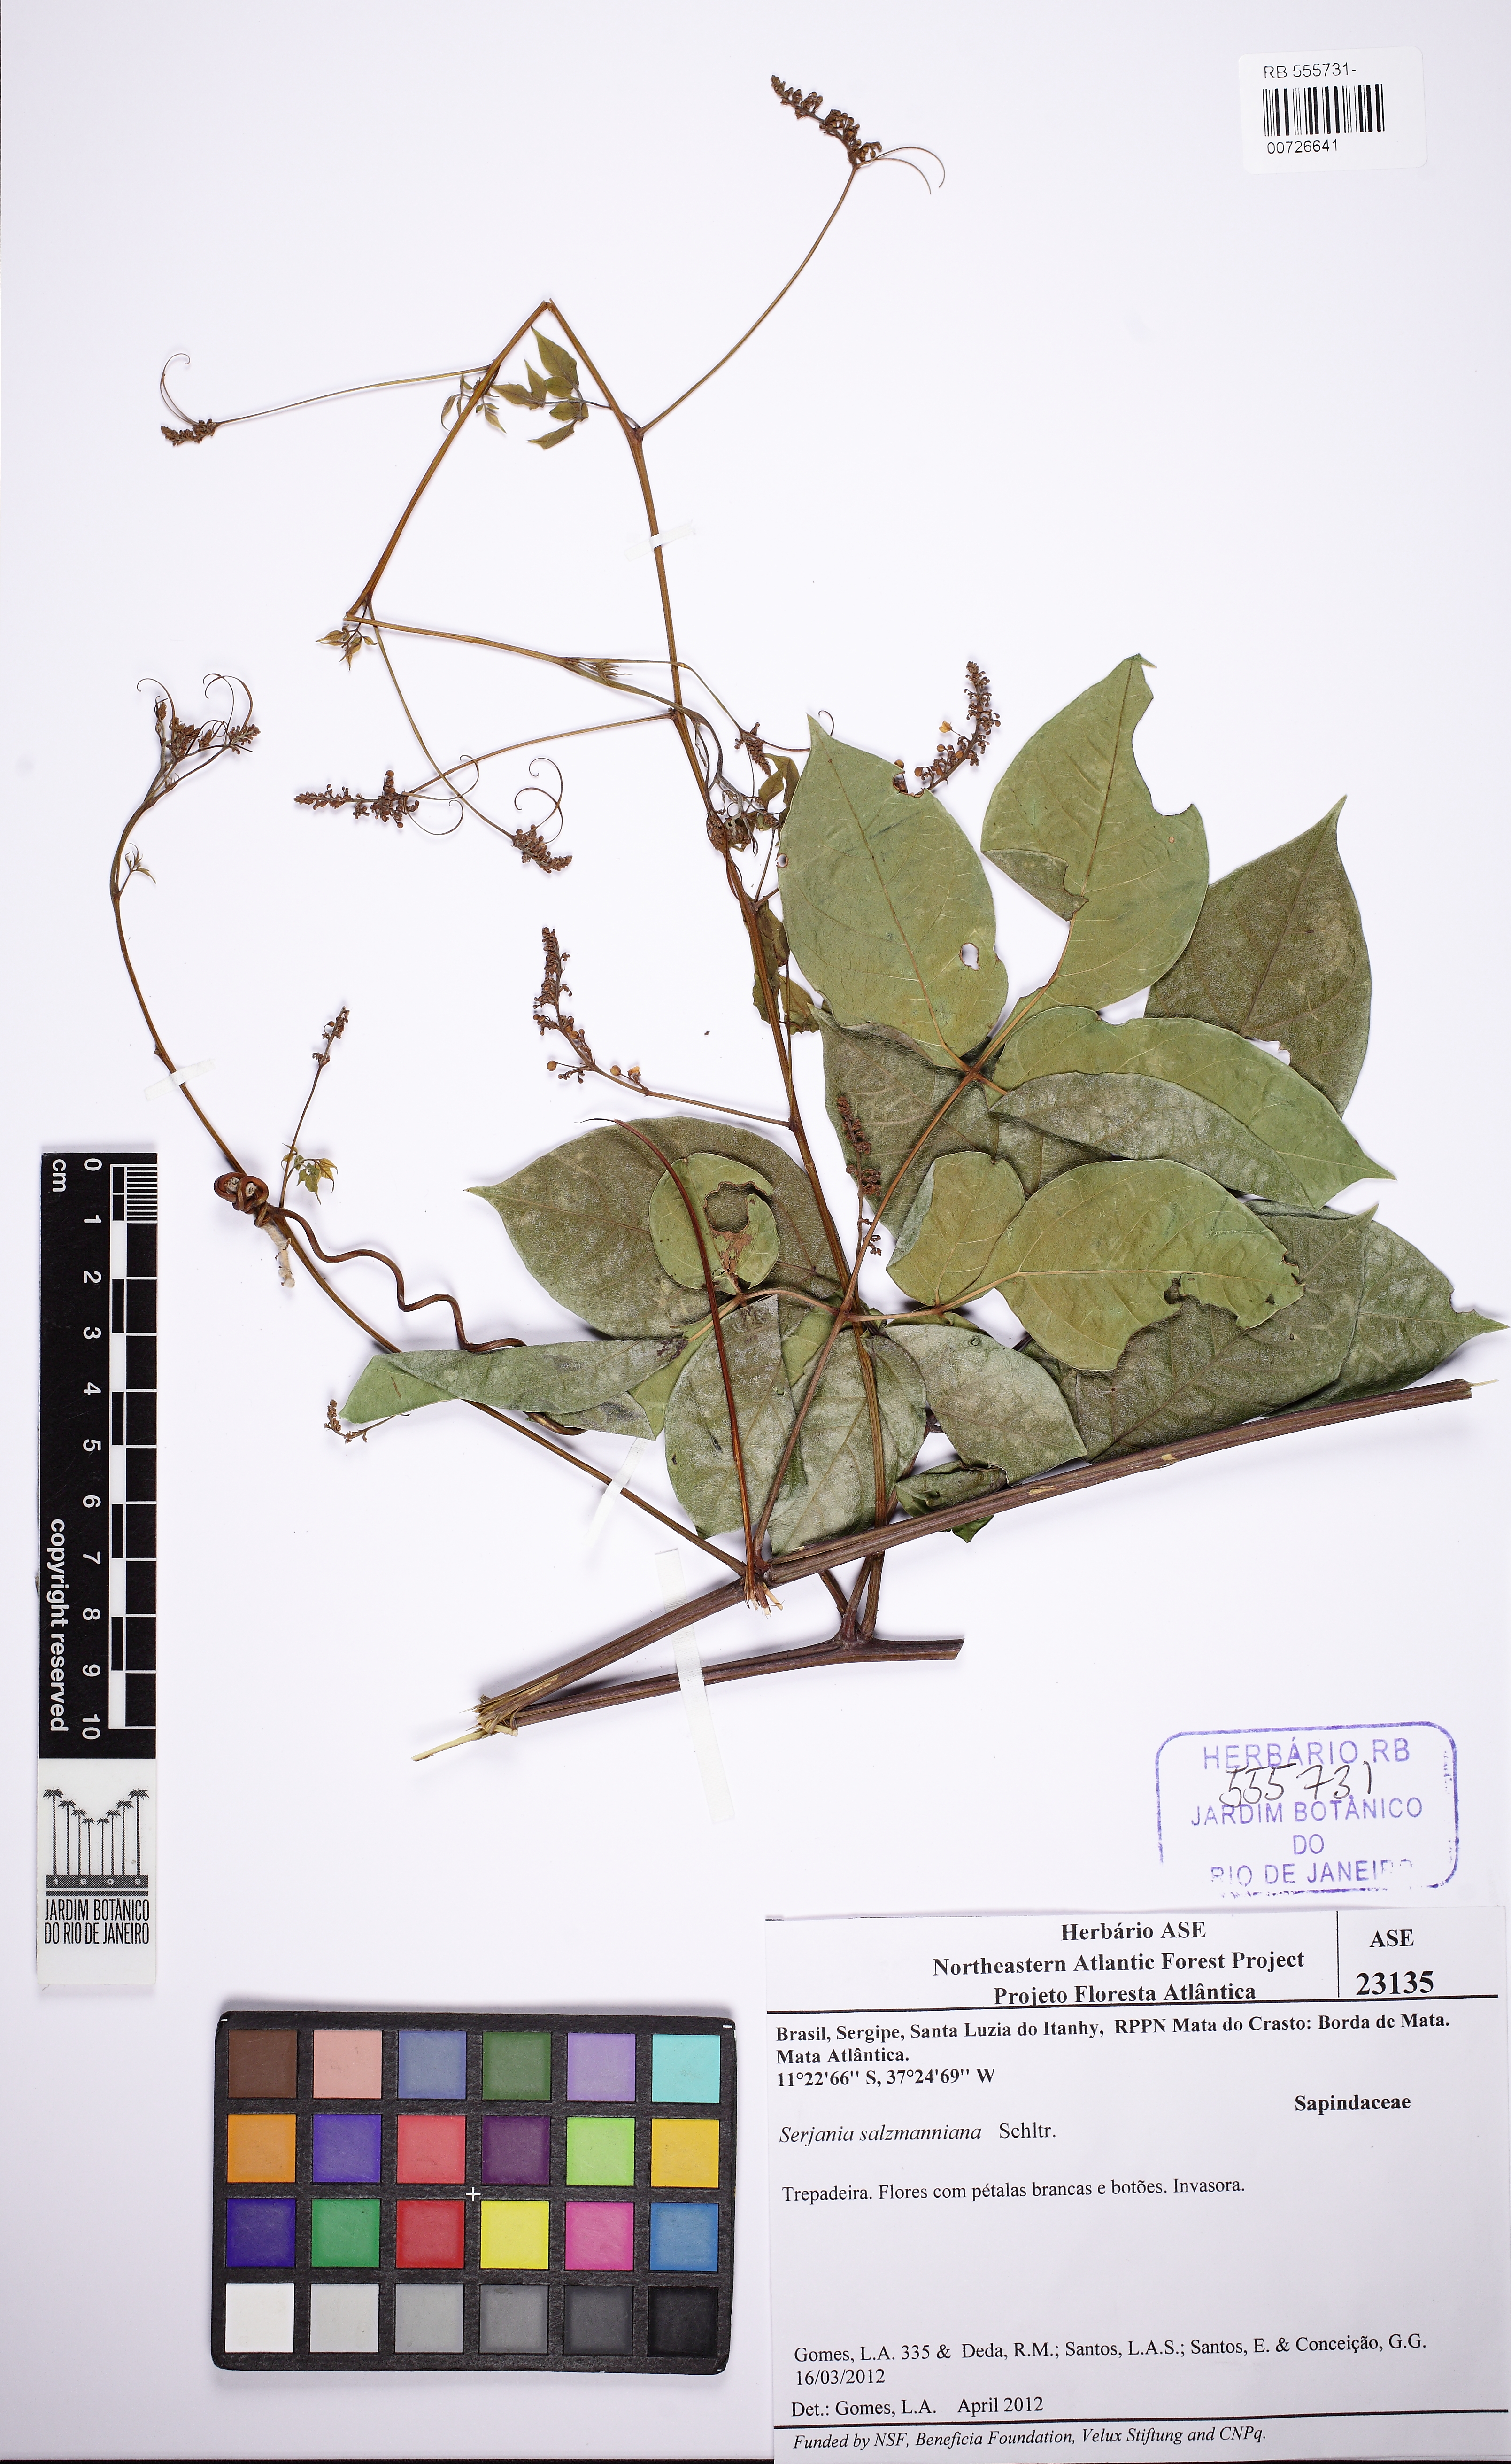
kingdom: Plantae
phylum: Tracheophyta
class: Magnoliopsida
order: Sapindales
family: Sapindaceae
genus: Serjania
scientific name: Serjania salzmanniana
